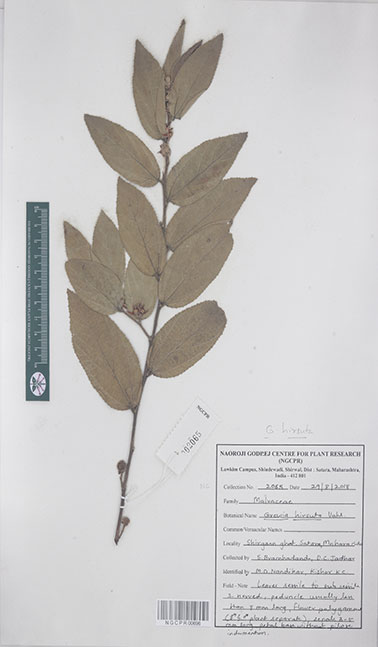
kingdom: Plantae
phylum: Tracheophyta
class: Magnoliopsida
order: Malvales
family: Malvaceae
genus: Grewia
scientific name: Grewia hirsuta
